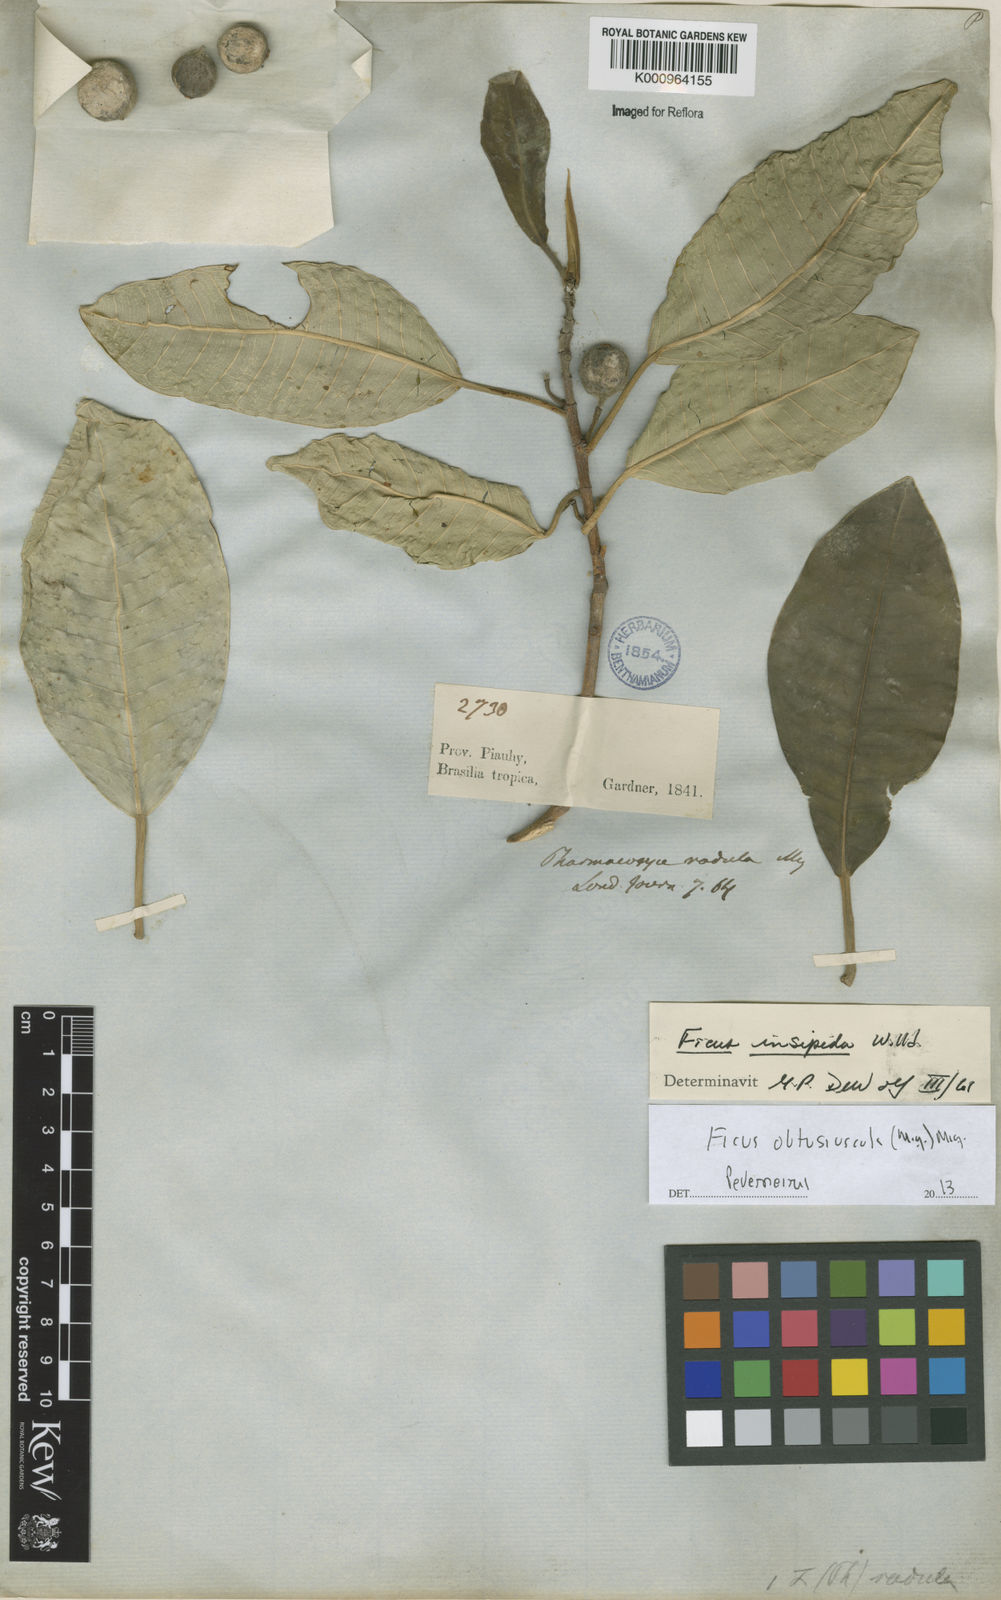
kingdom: Plantae
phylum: Tracheophyta
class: Magnoliopsida
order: Rosales
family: Moraceae
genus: Ficus
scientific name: Ficus obtusiuscula
